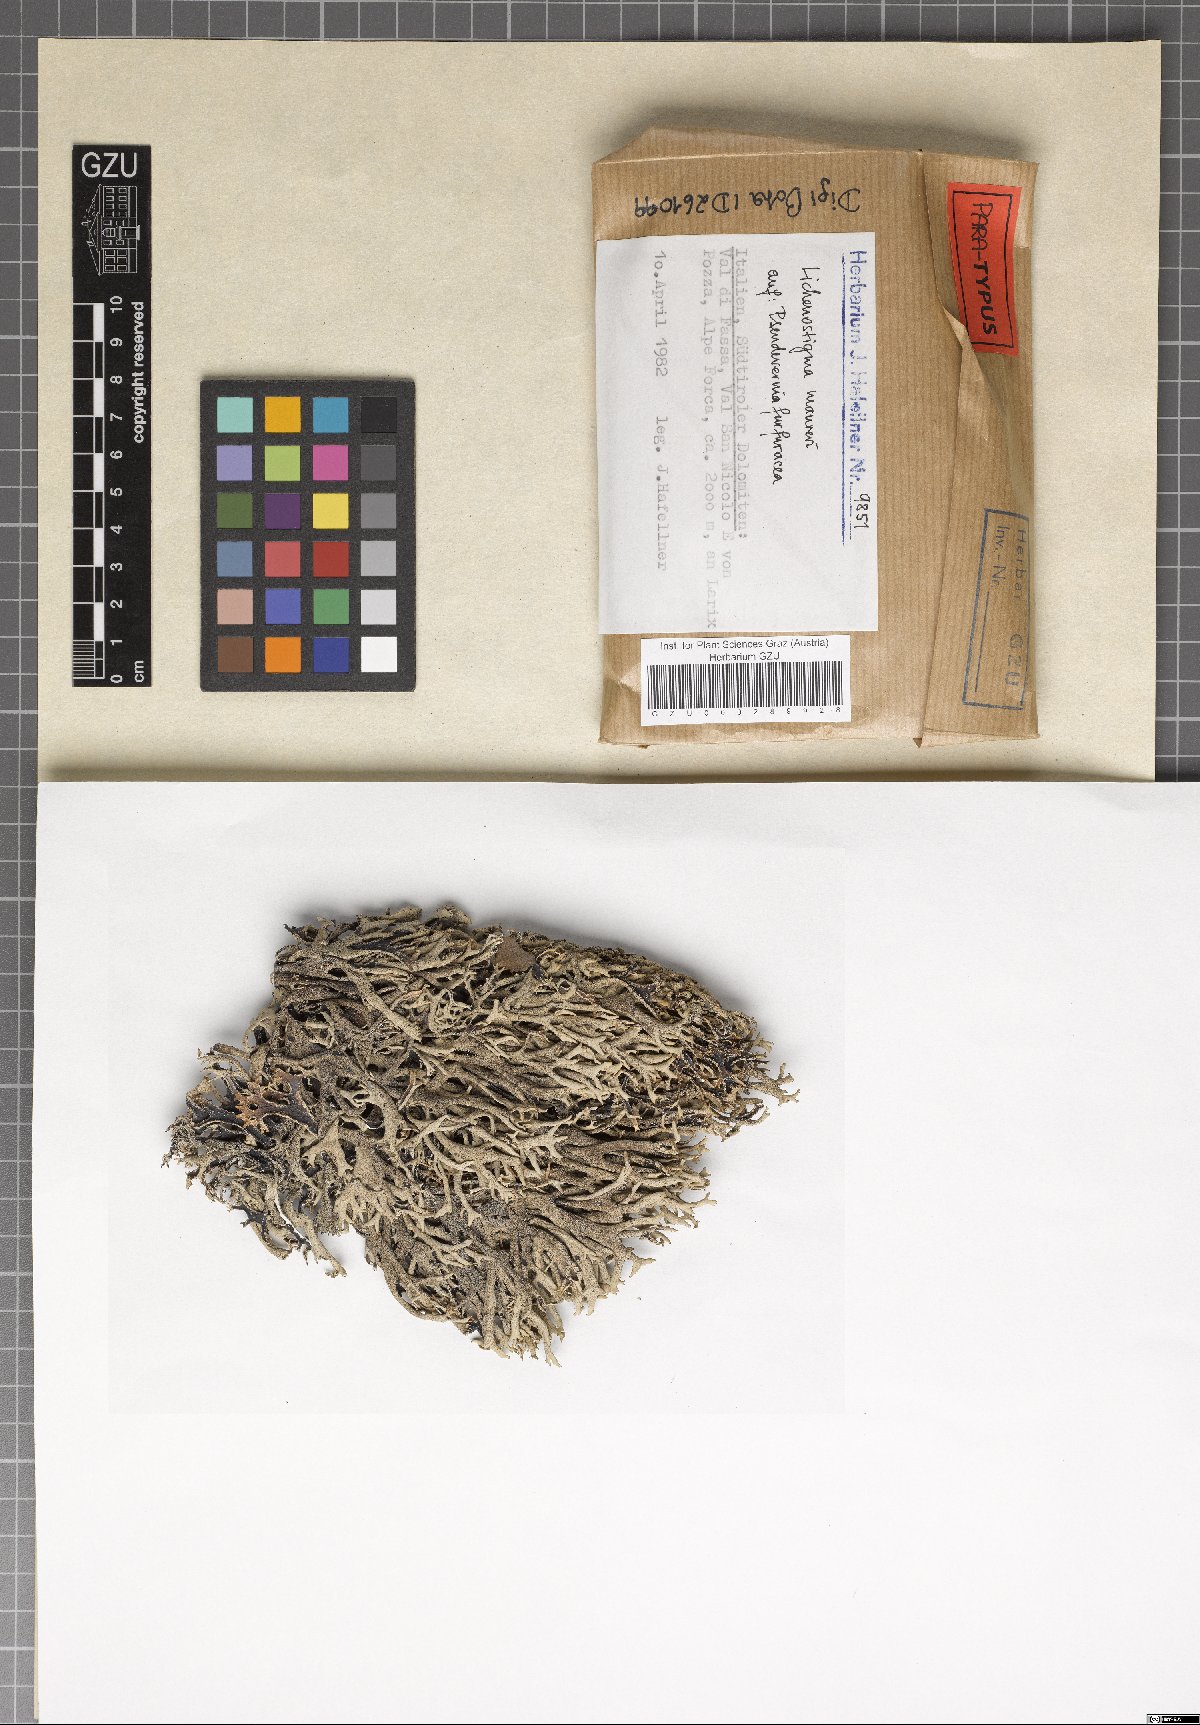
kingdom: Fungi
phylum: Ascomycota
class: Arthoniomycetes
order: Lichenostigmatales
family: Phaeococcomycetaceae
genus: Lichenostigma
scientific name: Lichenostigma maureri
